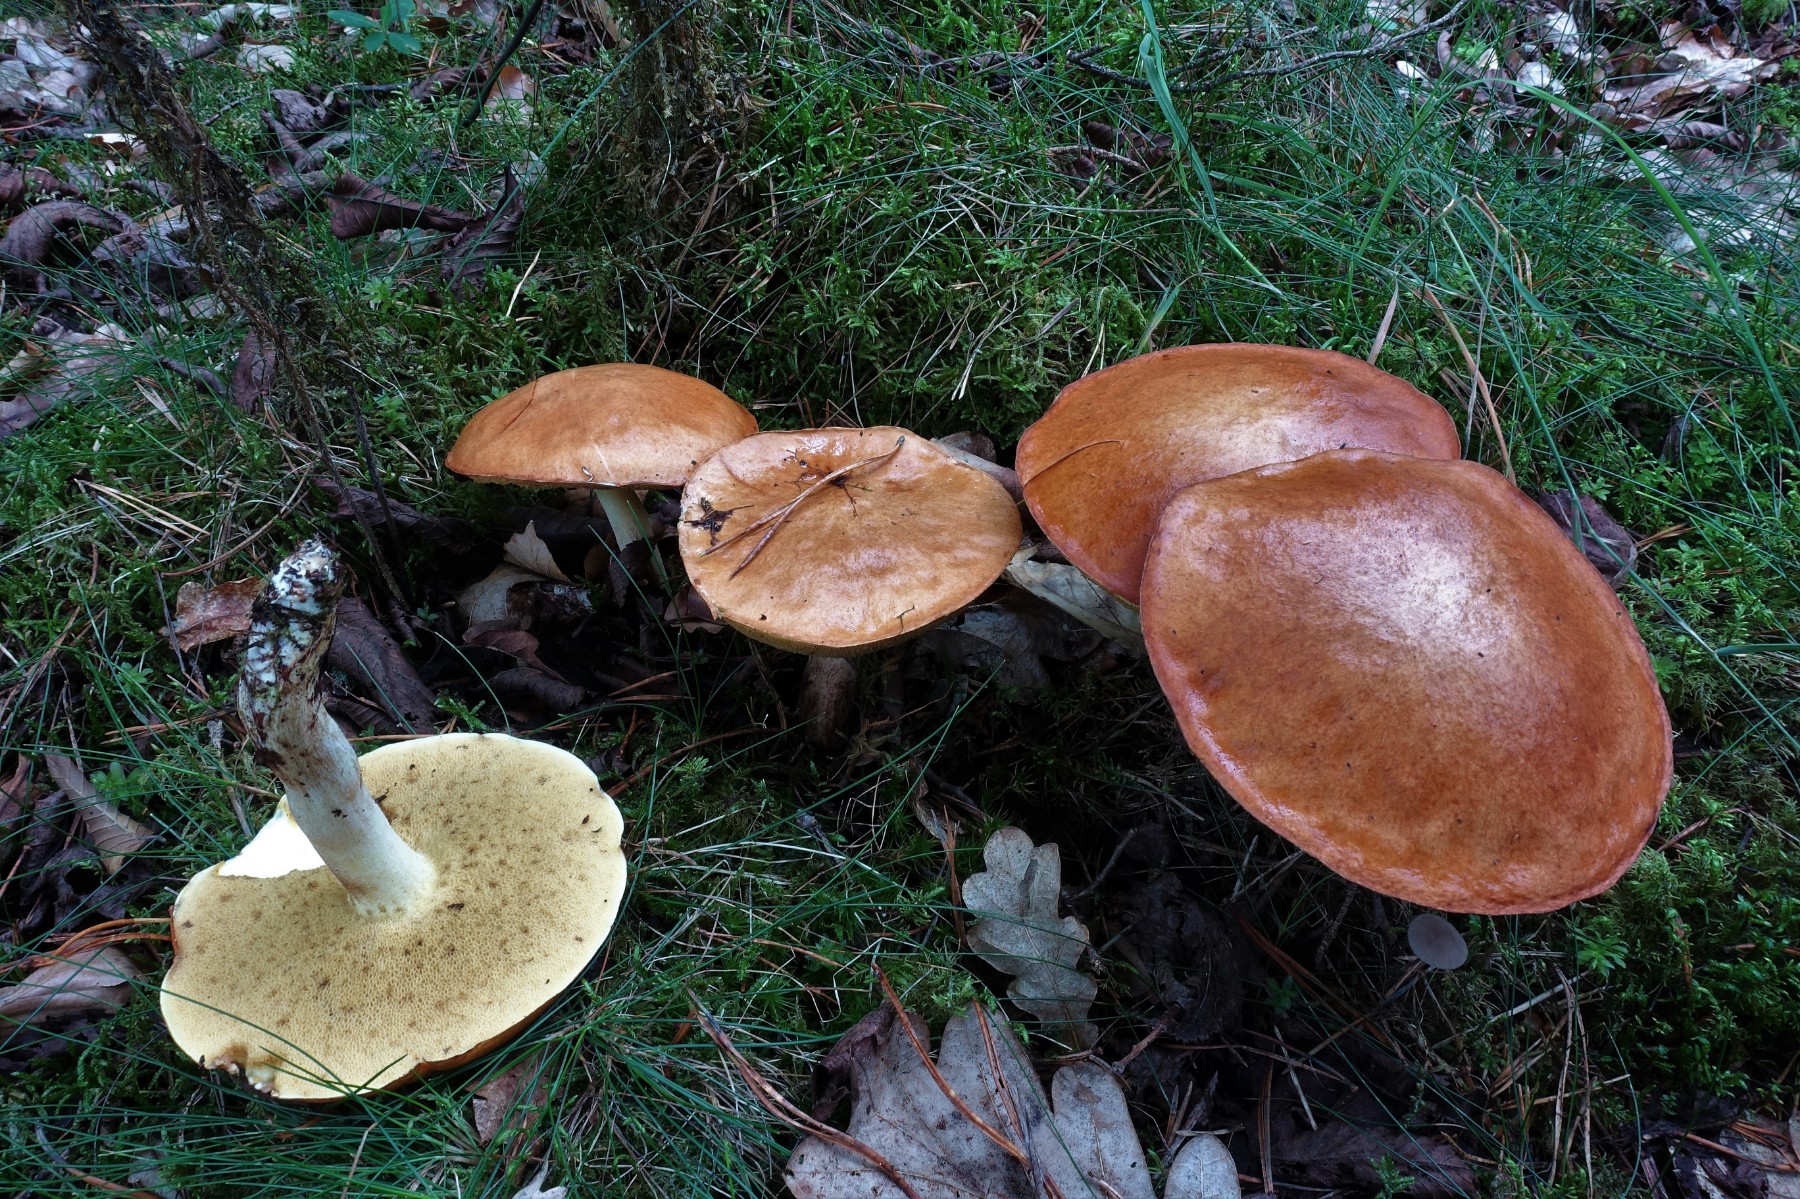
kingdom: Fungi
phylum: Basidiomycota
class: Agaricomycetes
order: Boletales
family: Suillaceae
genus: Suillus
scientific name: Suillus granulatus
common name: kornet slimrørhat
